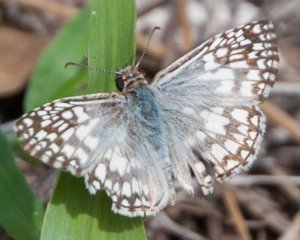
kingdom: Animalia
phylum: Arthropoda
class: Insecta
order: Lepidoptera
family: Hesperiidae
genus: Pyrgus
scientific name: Pyrgus oileus
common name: Tropical Checkered-Skipper
